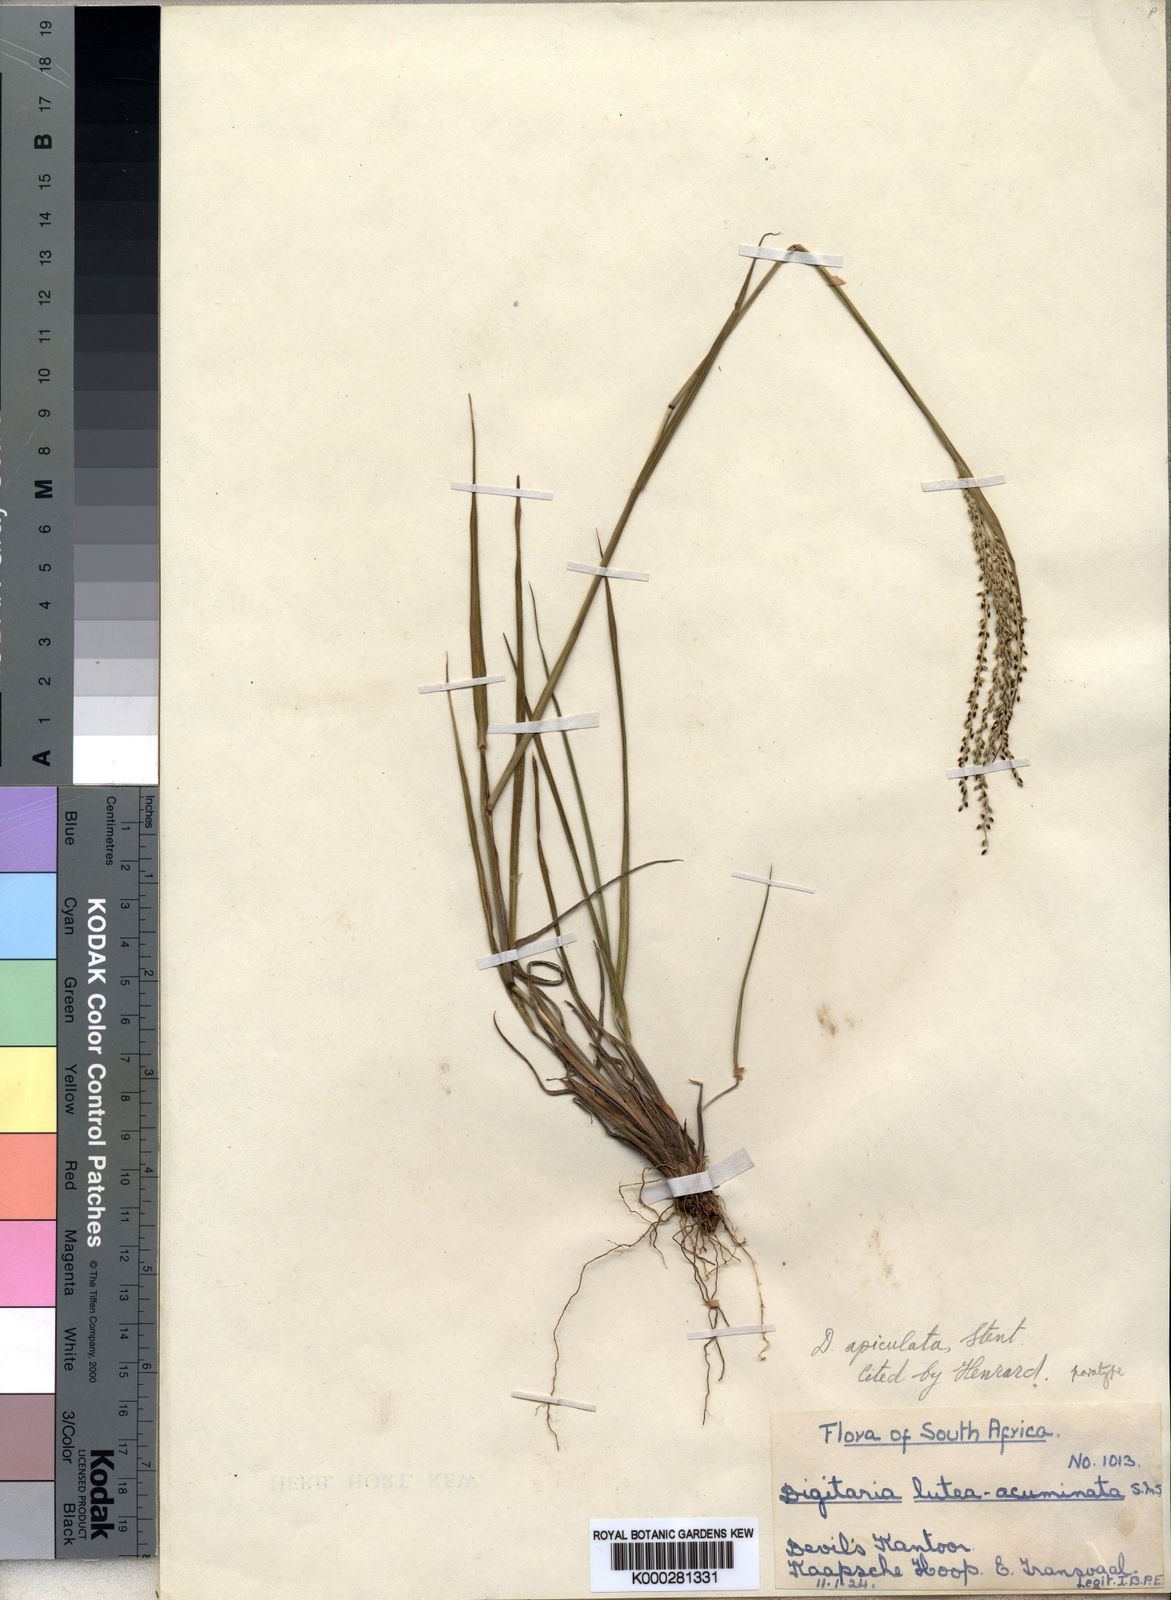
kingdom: Plantae
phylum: Tracheophyta
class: Liliopsida
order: Poales
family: Poaceae
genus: Digitaria
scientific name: Digitaria maitlandii
